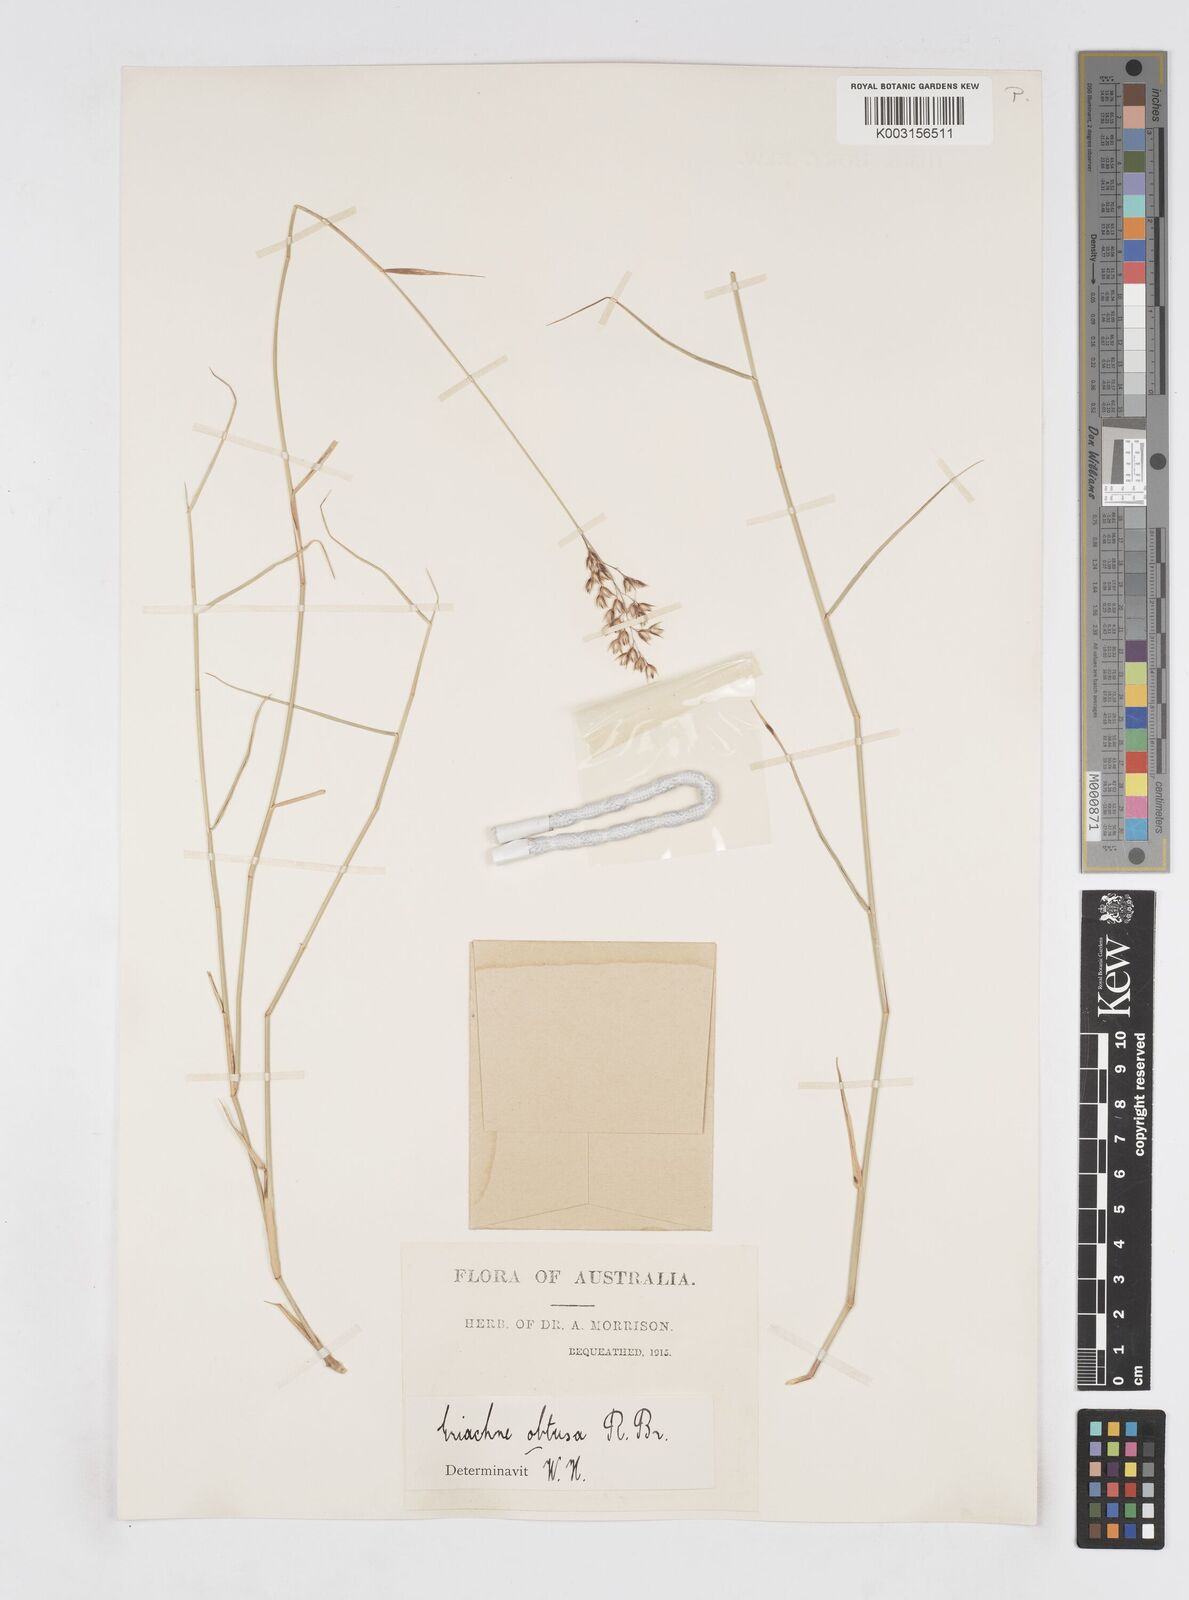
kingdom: Plantae
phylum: Tracheophyta
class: Liliopsida
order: Poales
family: Poaceae
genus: Eriachne
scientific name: Eriachne obtusa
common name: Northern wanderrie grass
